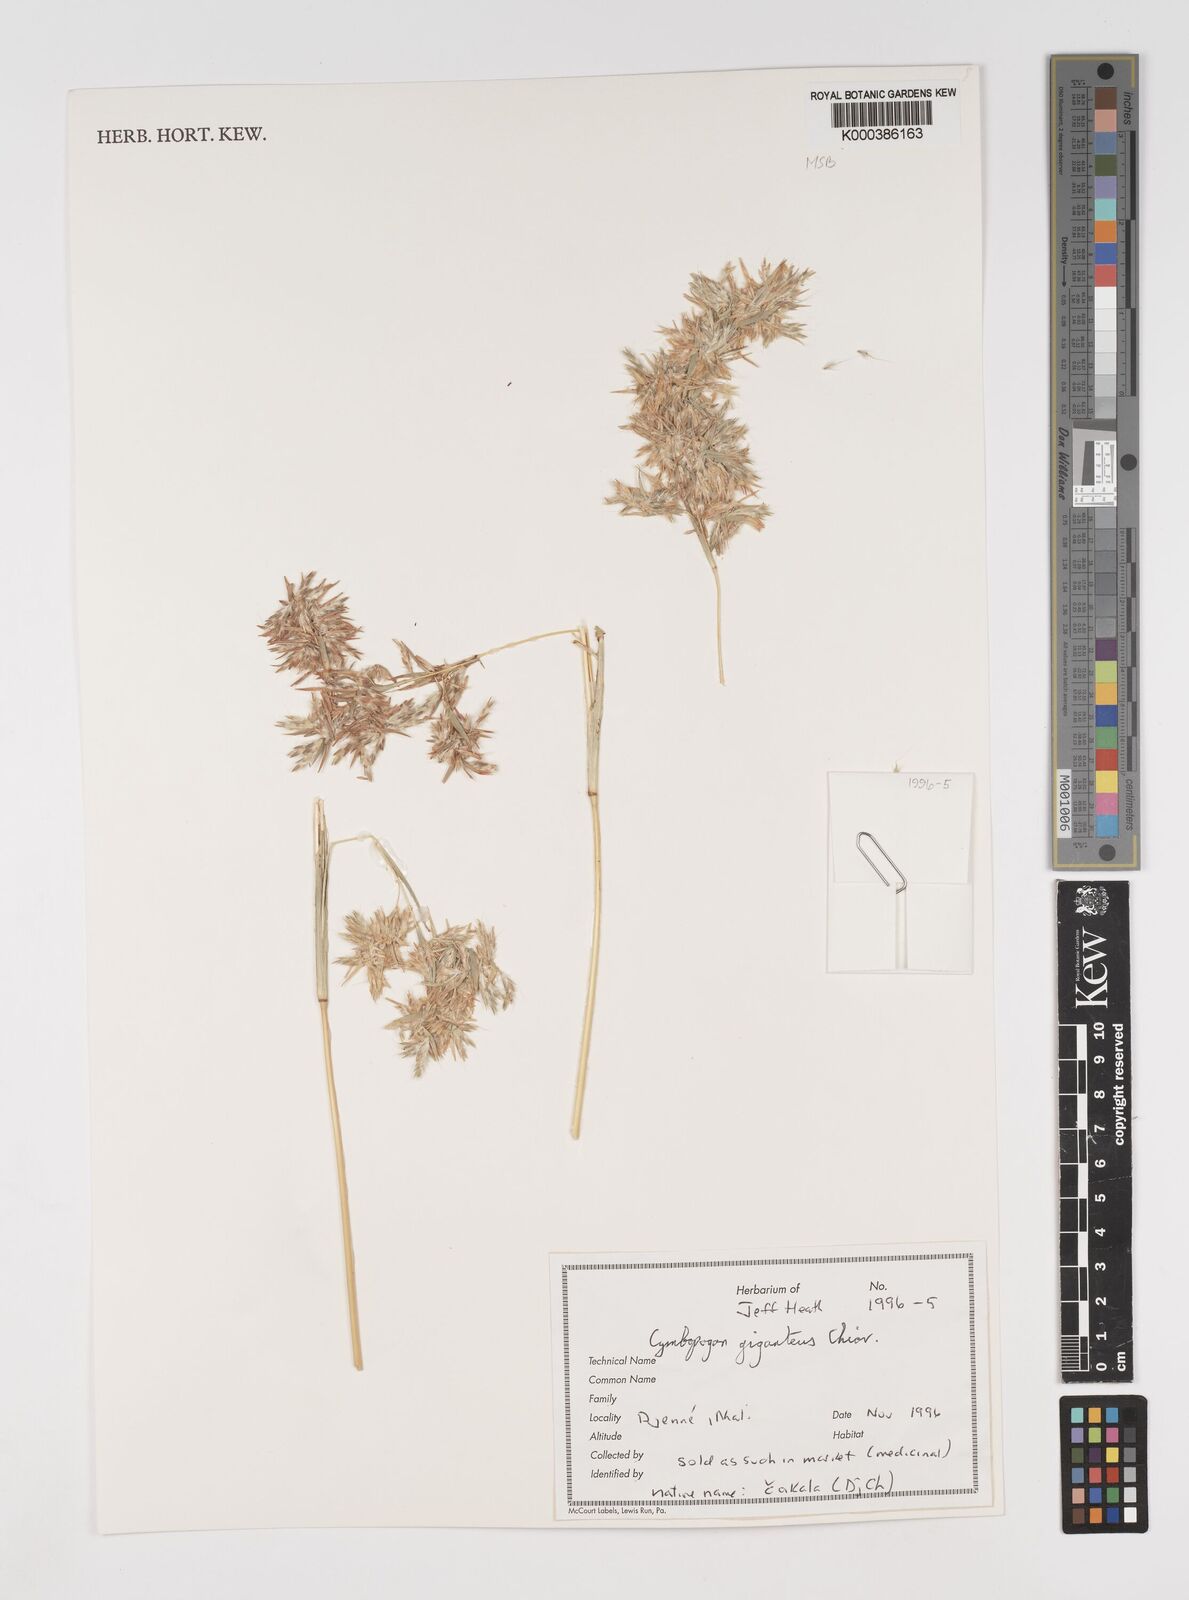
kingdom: Plantae
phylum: Tracheophyta
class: Liliopsida
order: Poales
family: Poaceae
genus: Cymbopogon
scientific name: Cymbopogon giganteus
